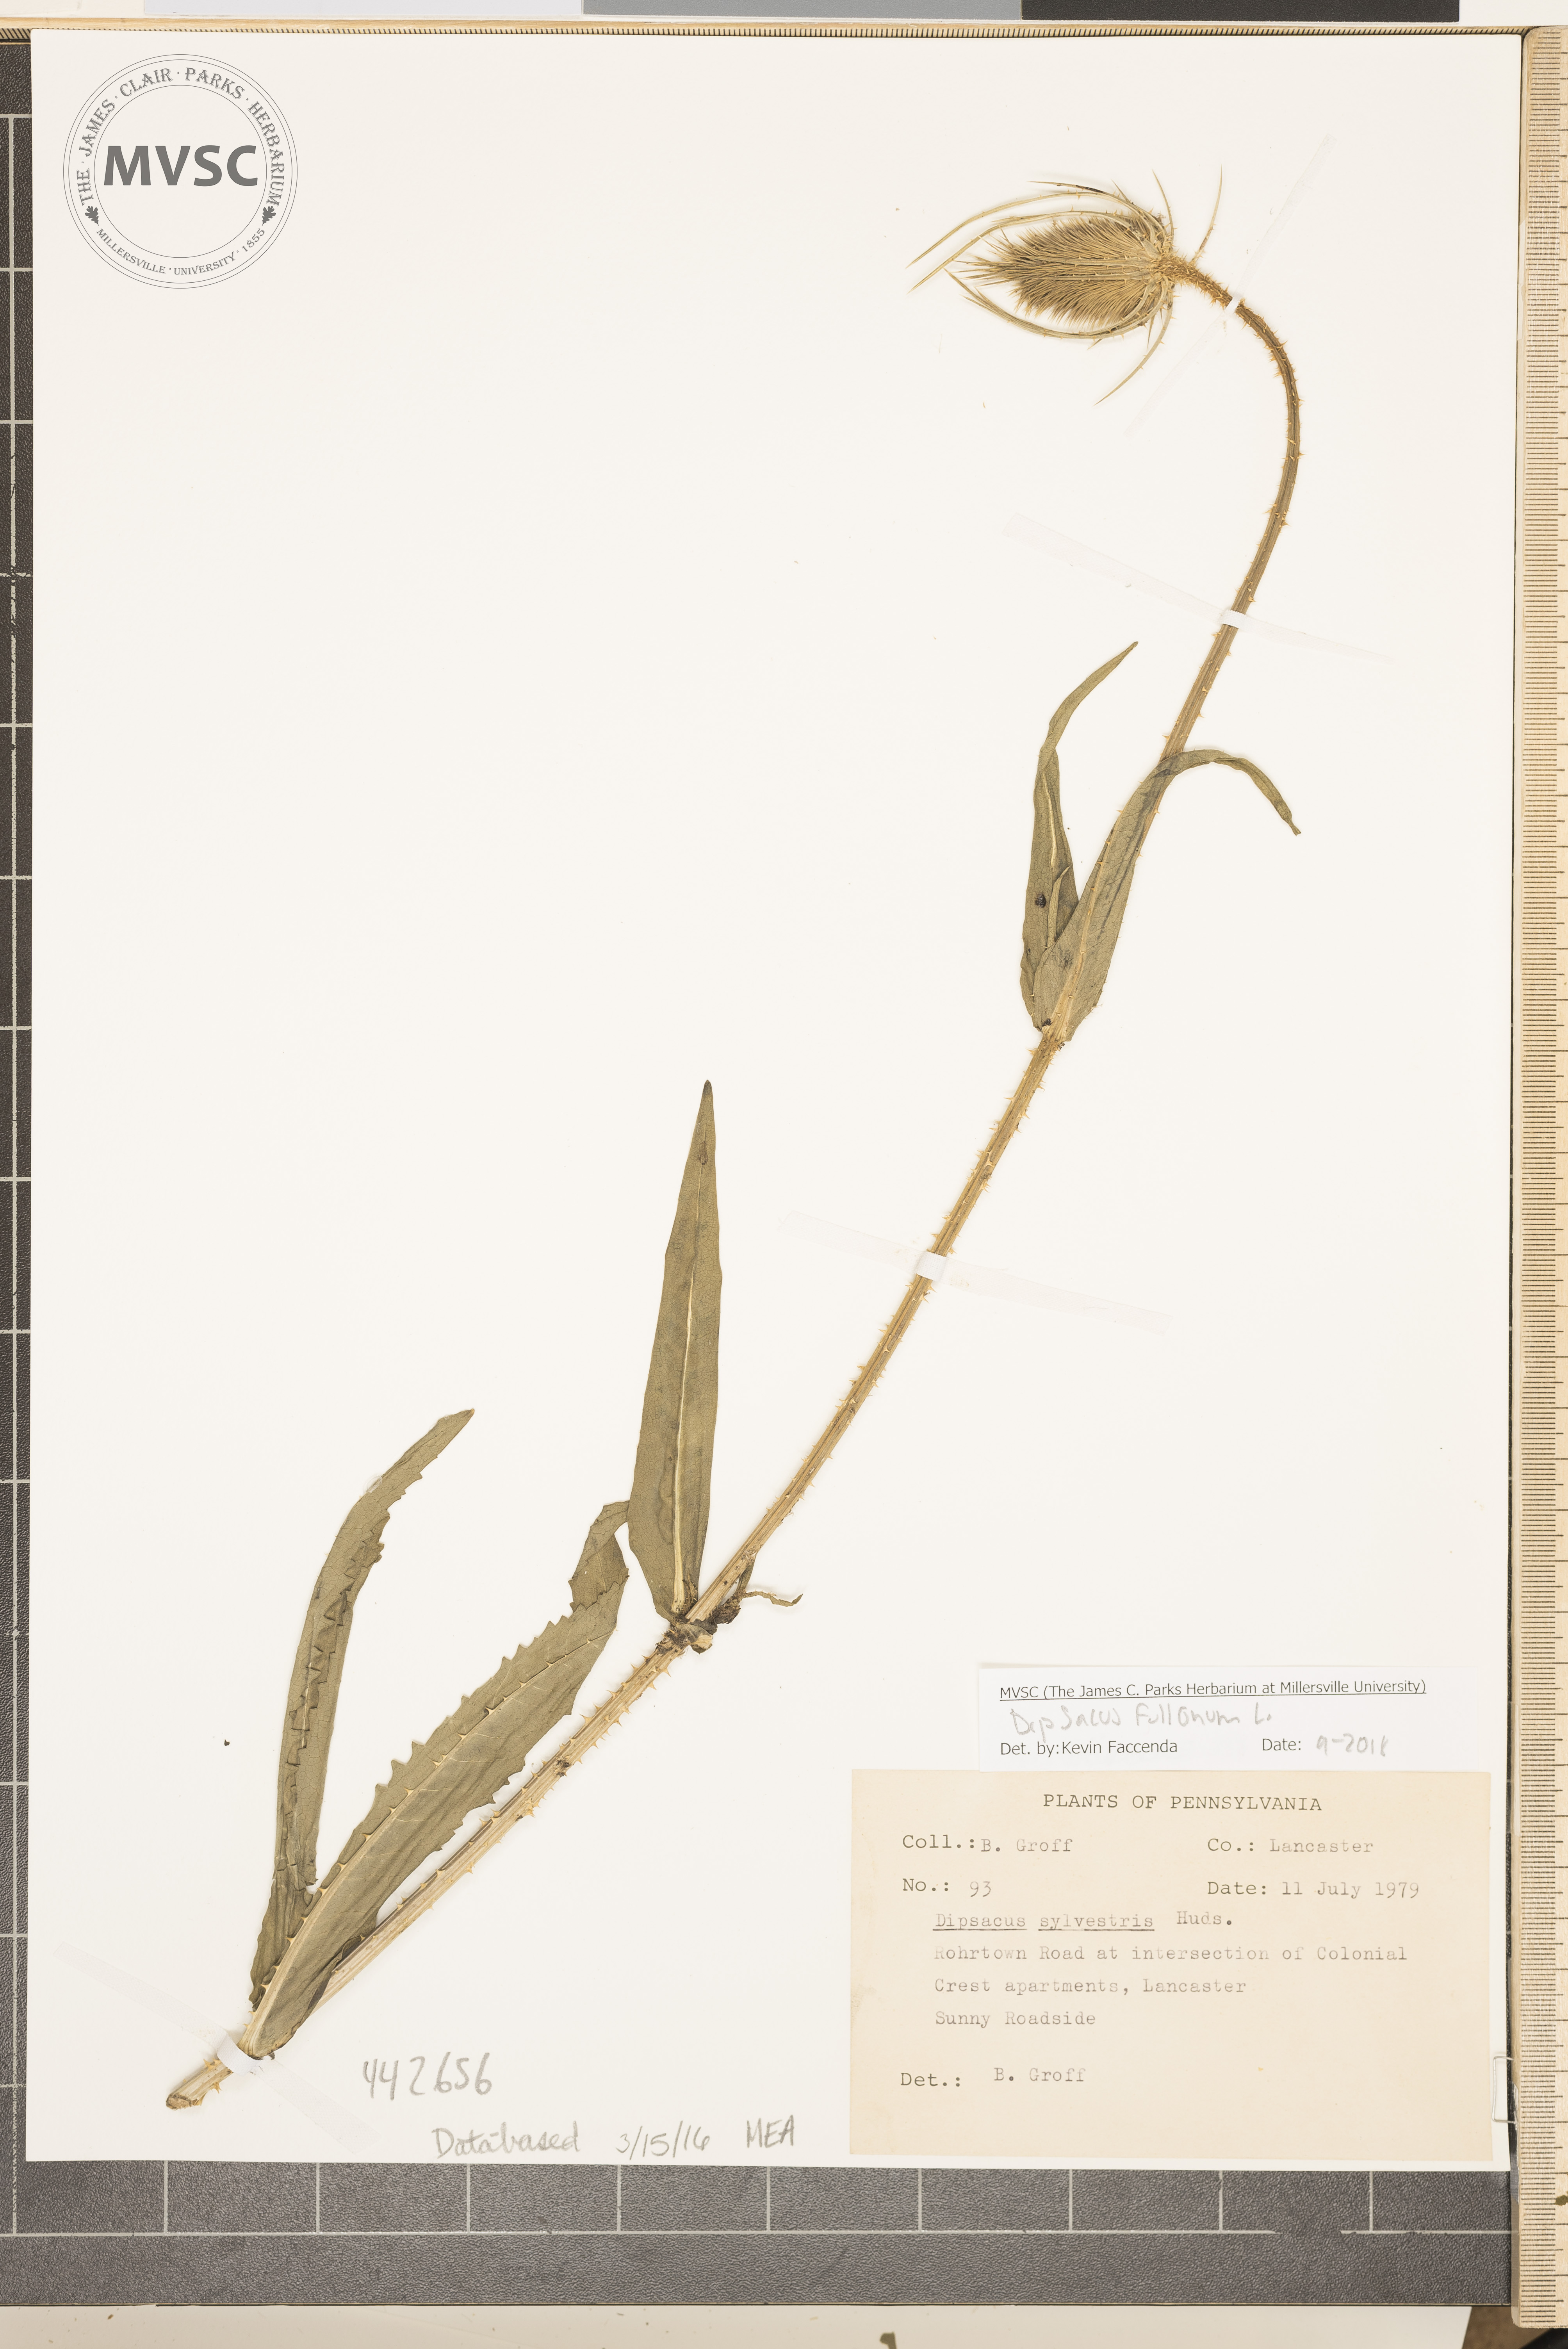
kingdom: Plantae
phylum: Tracheophyta
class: Magnoliopsida
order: Dipsacales
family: Caprifoliaceae
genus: Dipsacus
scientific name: Dipsacus fullonum
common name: wild teasel
